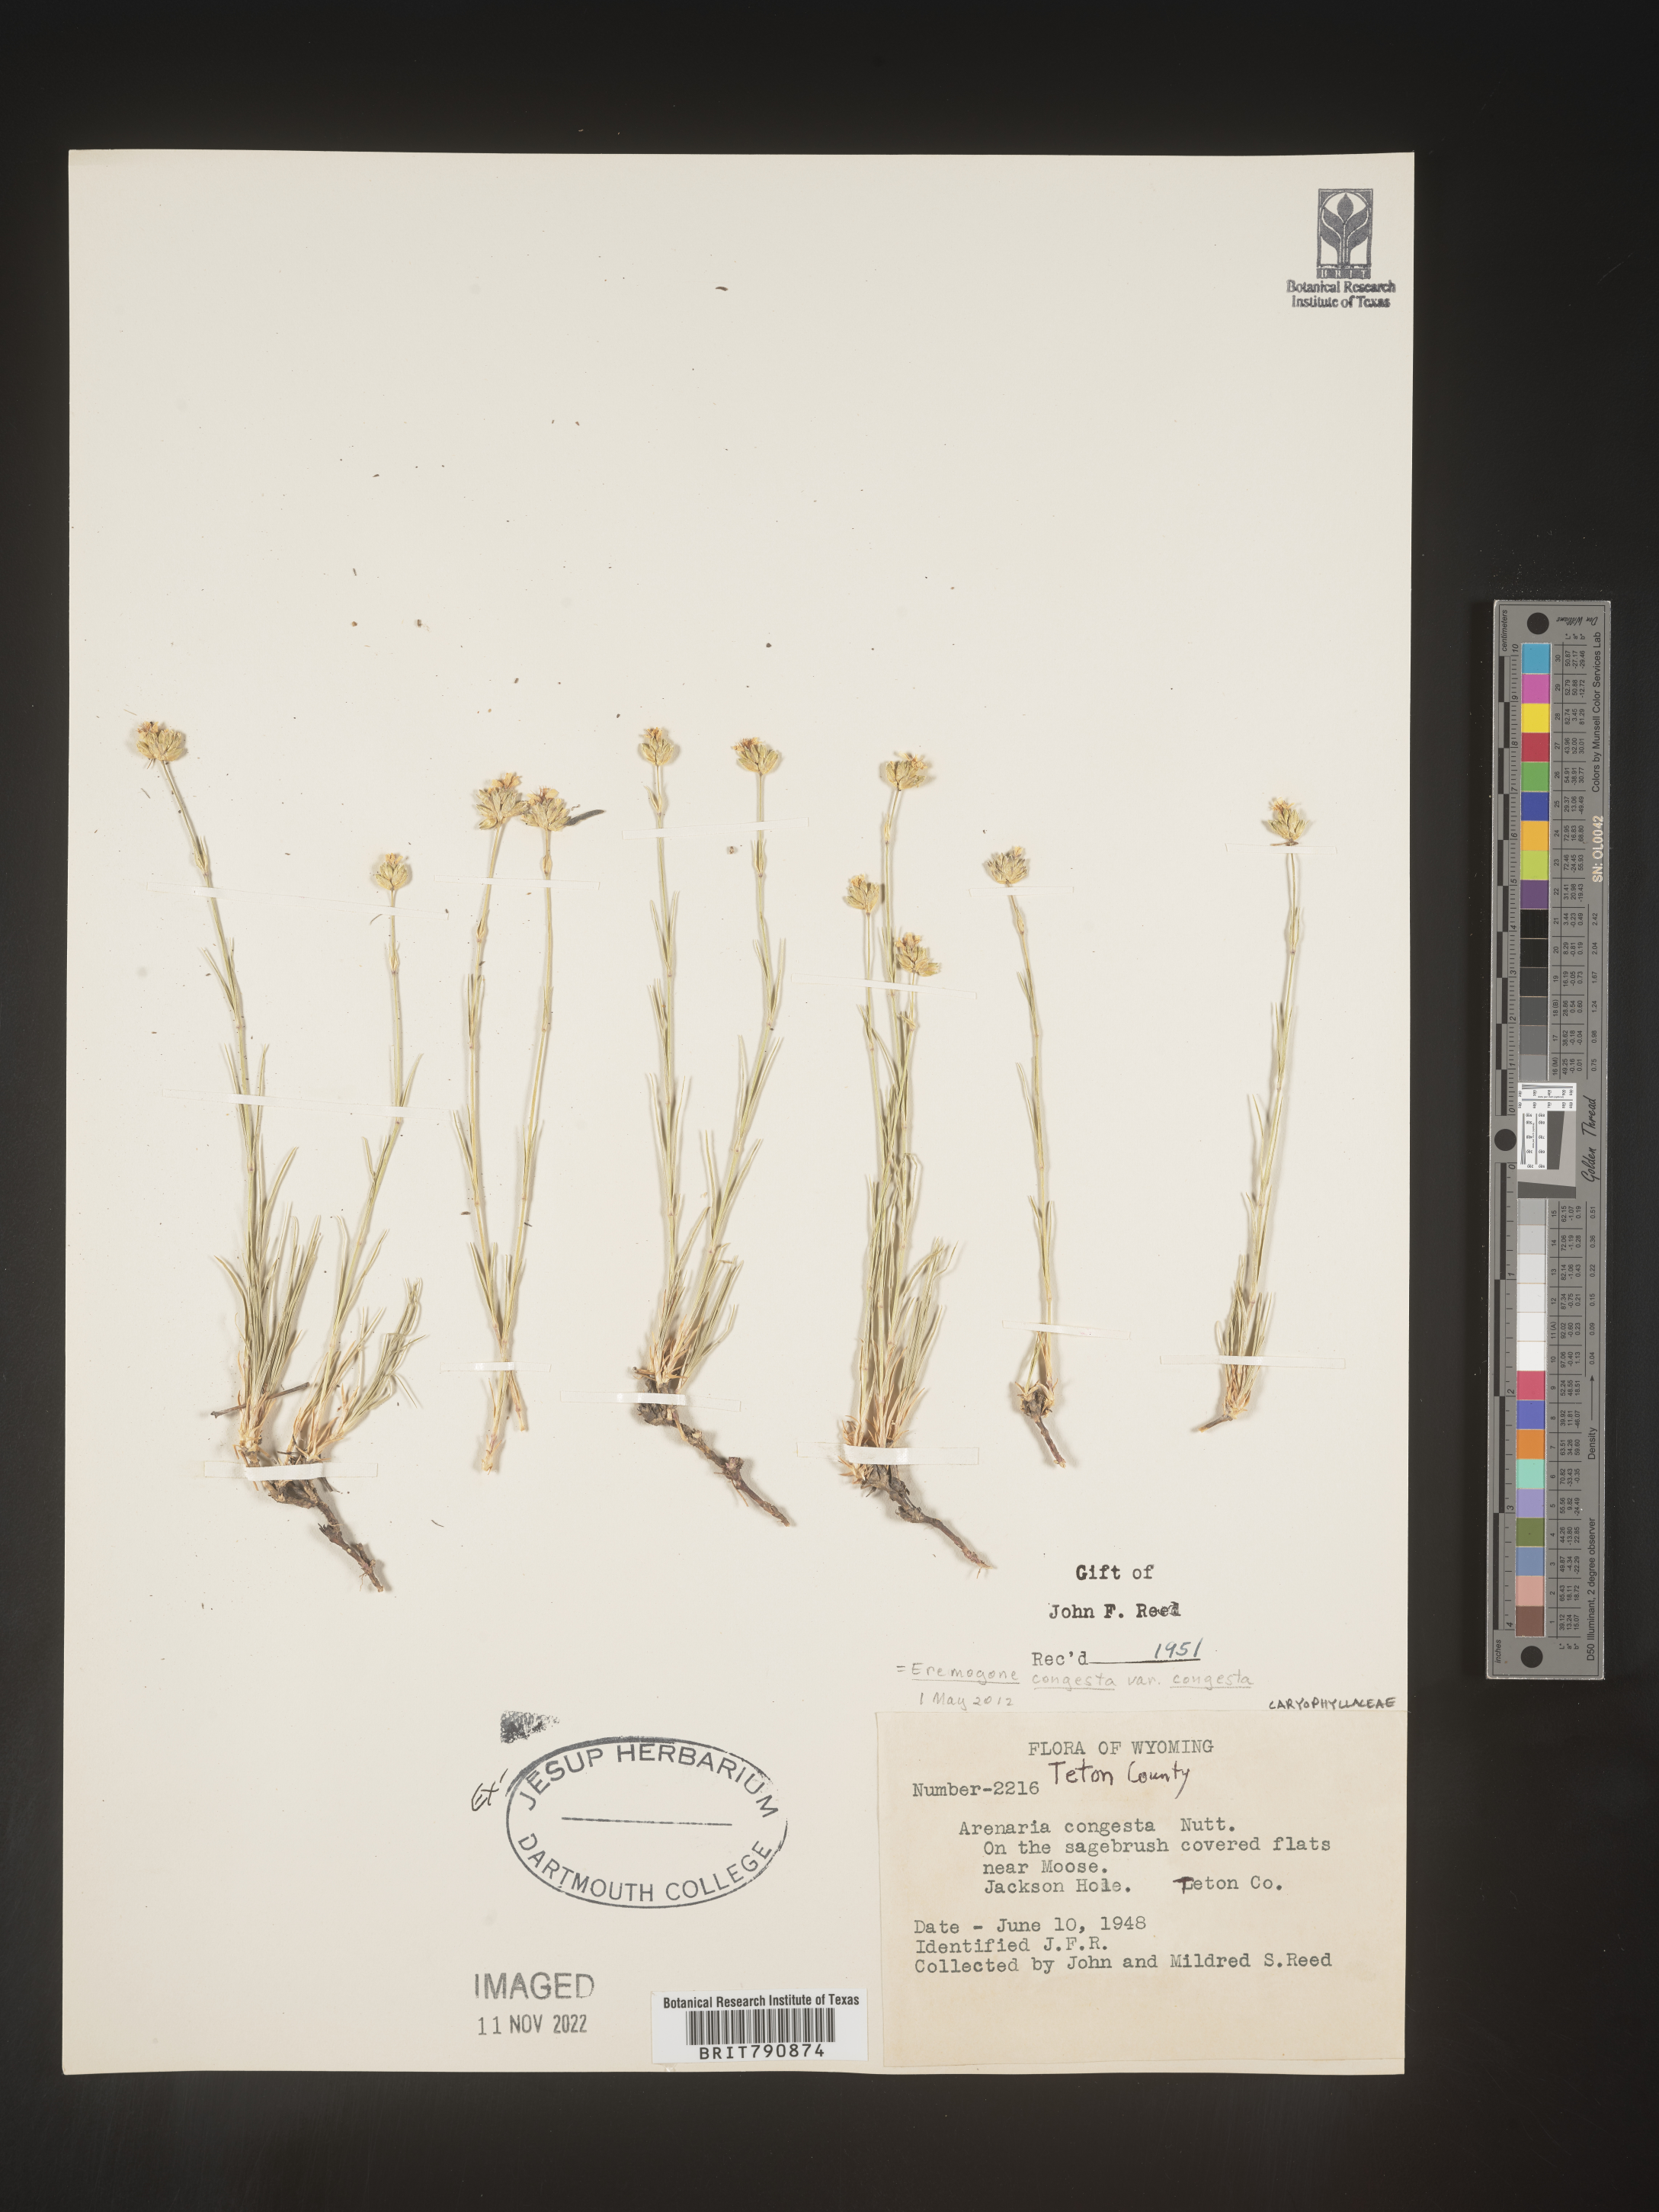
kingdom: Plantae
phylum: Tracheophyta
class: Magnoliopsida
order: Caryophyllales
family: Caryophyllaceae
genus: Eremogone
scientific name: Eremogone
